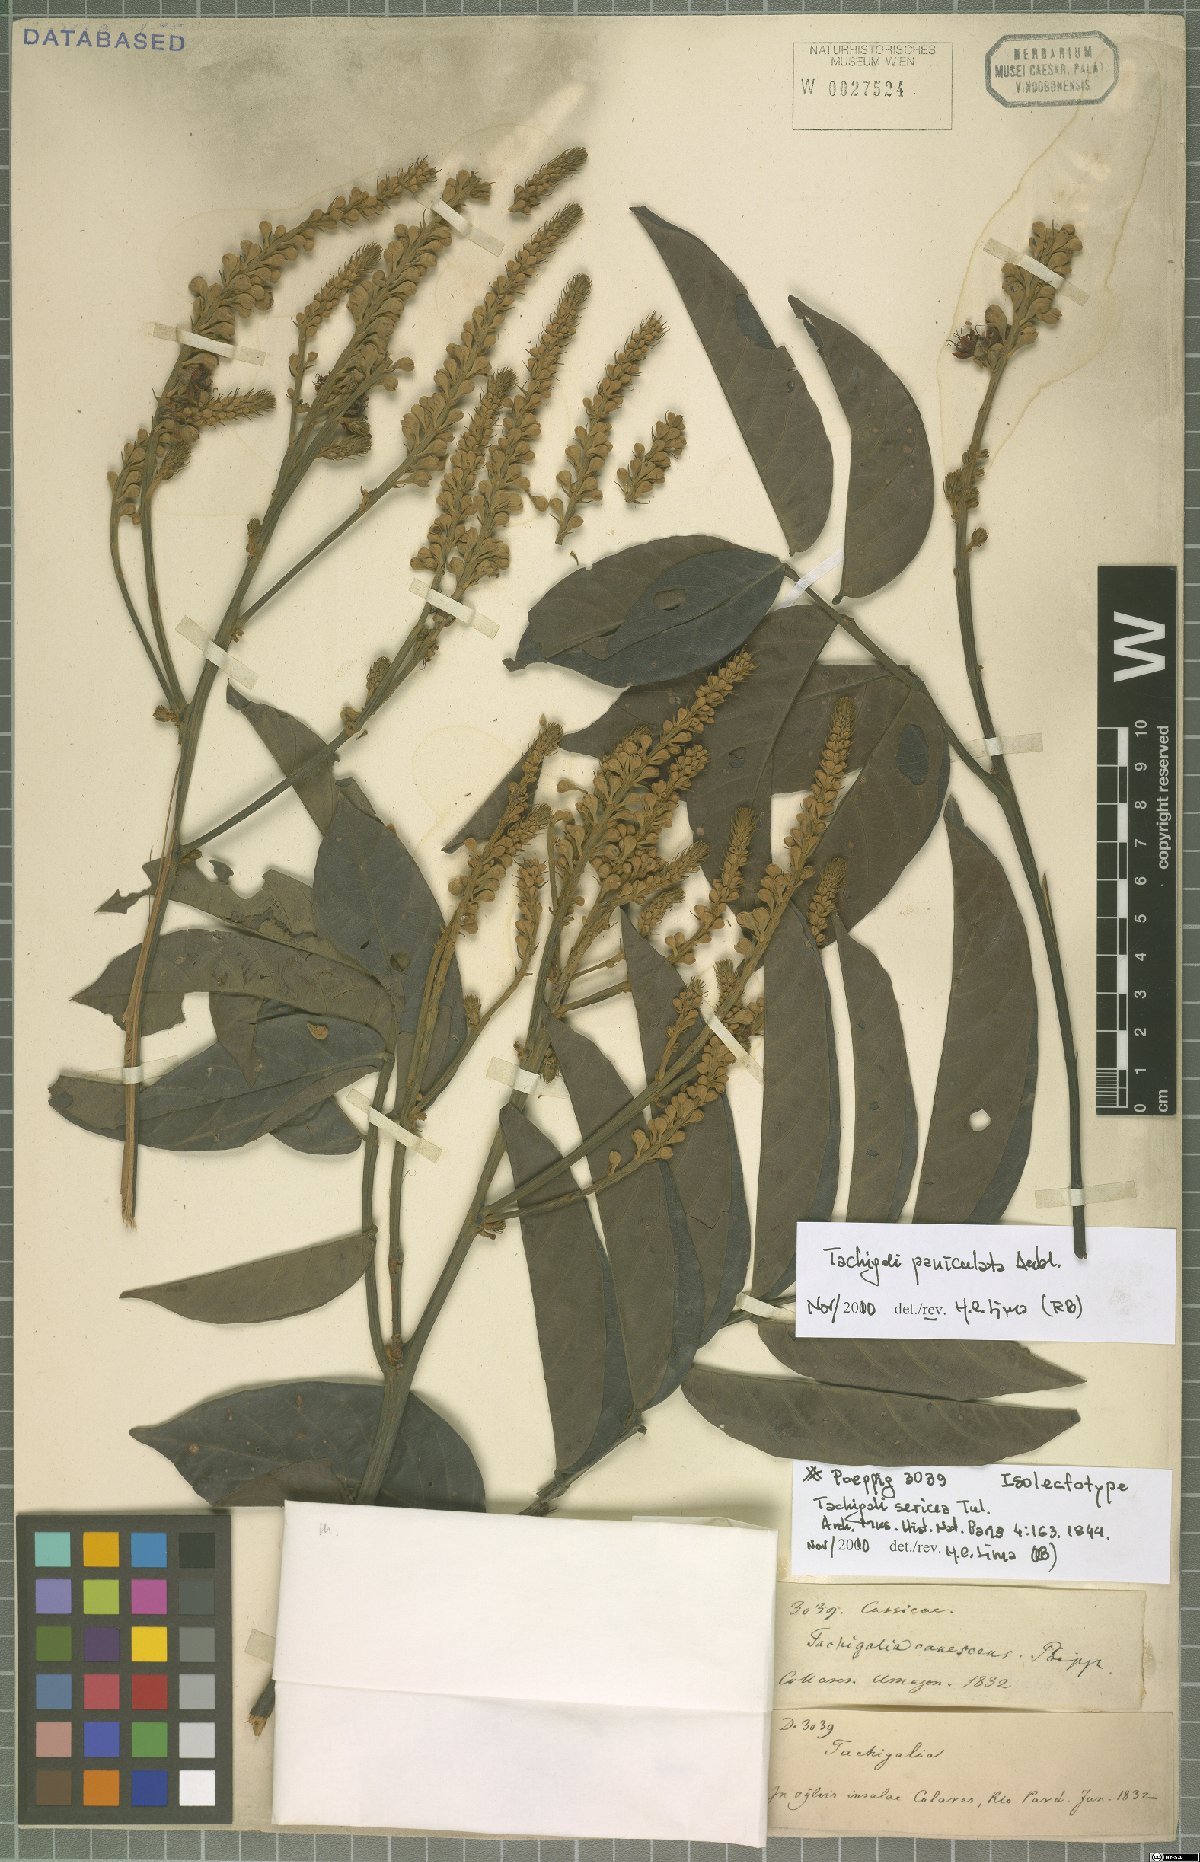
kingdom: Plantae
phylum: Tracheophyta
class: Magnoliopsida
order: Fabales
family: Fabaceae
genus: Tachigali
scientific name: Tachigali paniculata
